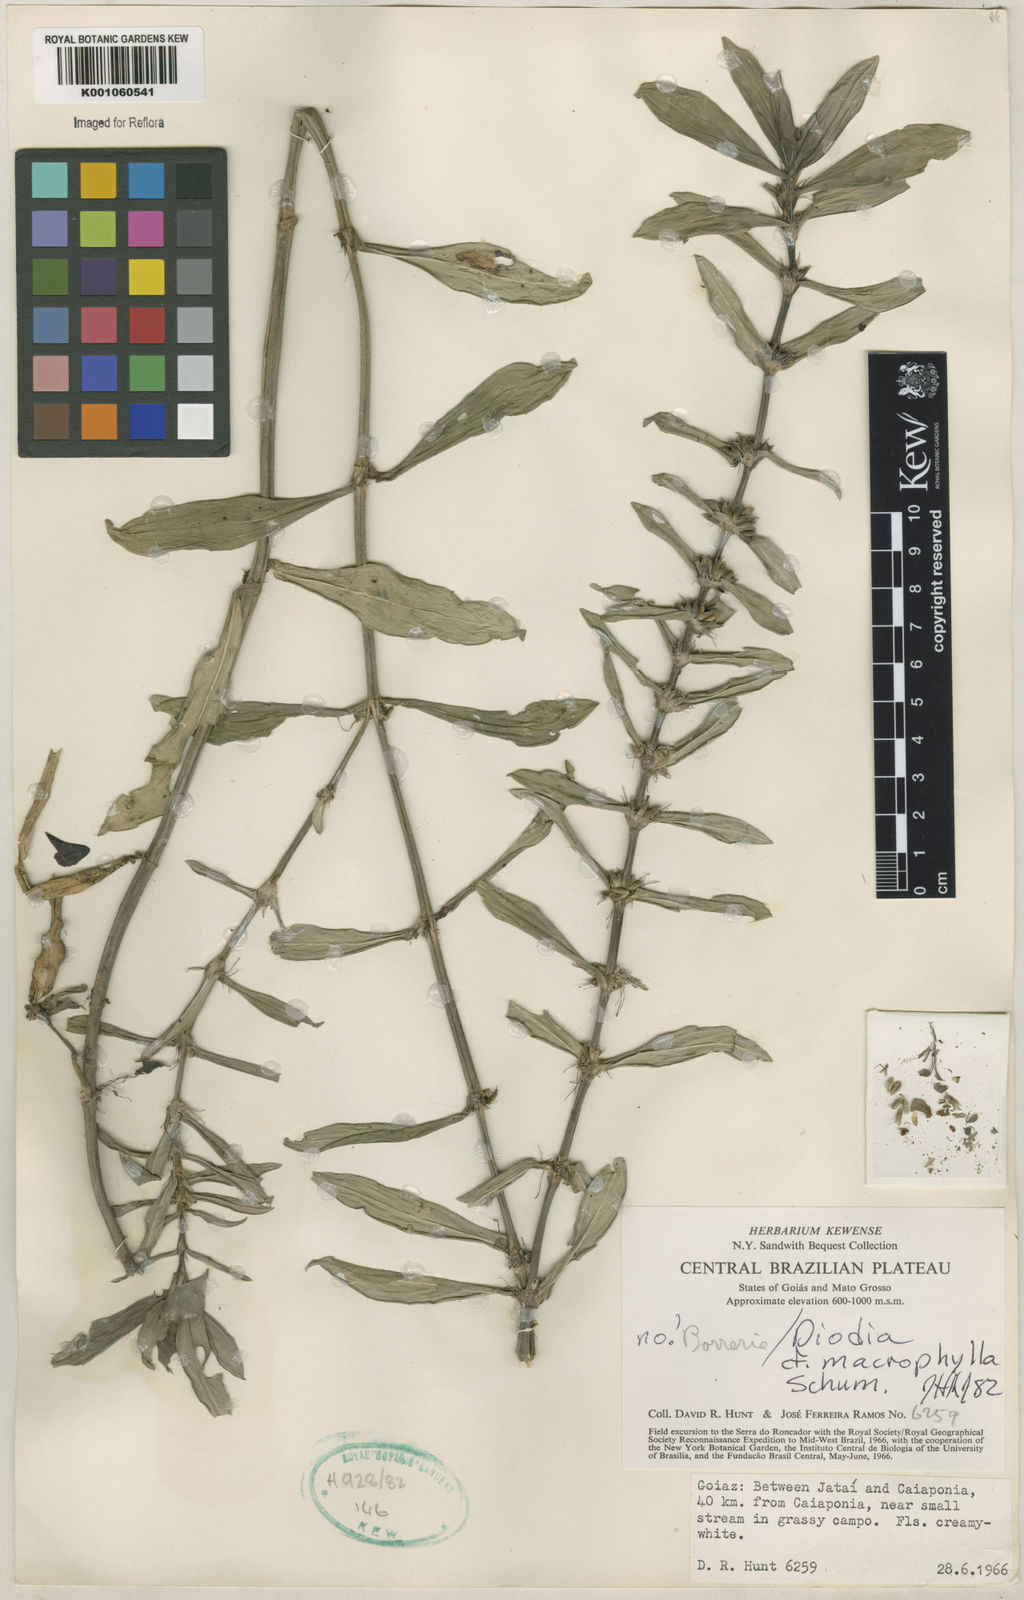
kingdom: Plantae
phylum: Tracheophyta
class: Magnoliopsida
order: Gentianales
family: Rubiaceae
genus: Diodia
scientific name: Diodia macrophylla
